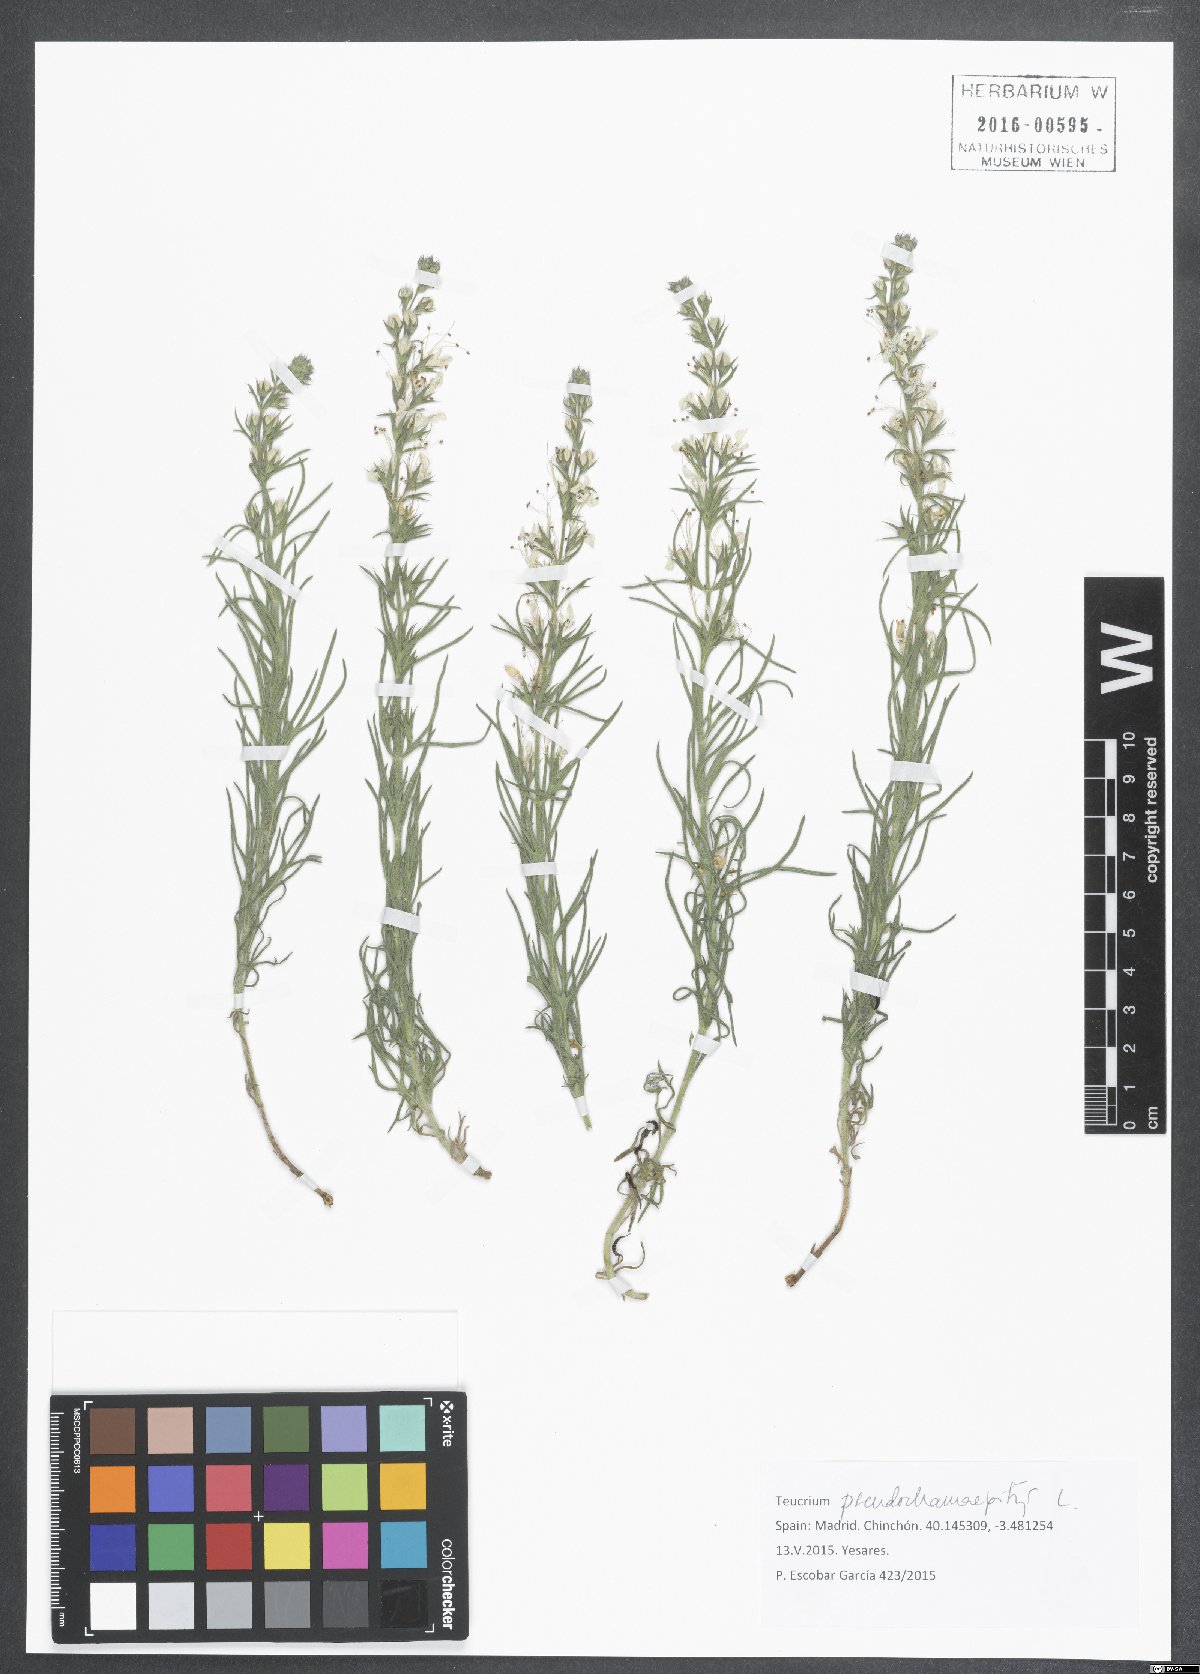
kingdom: Plantae
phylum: Tracheophyta
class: Magnoliopsida
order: Lamiales
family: Lamiaceae
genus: Teucrium
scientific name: Teucrium pseudochamaepitys
